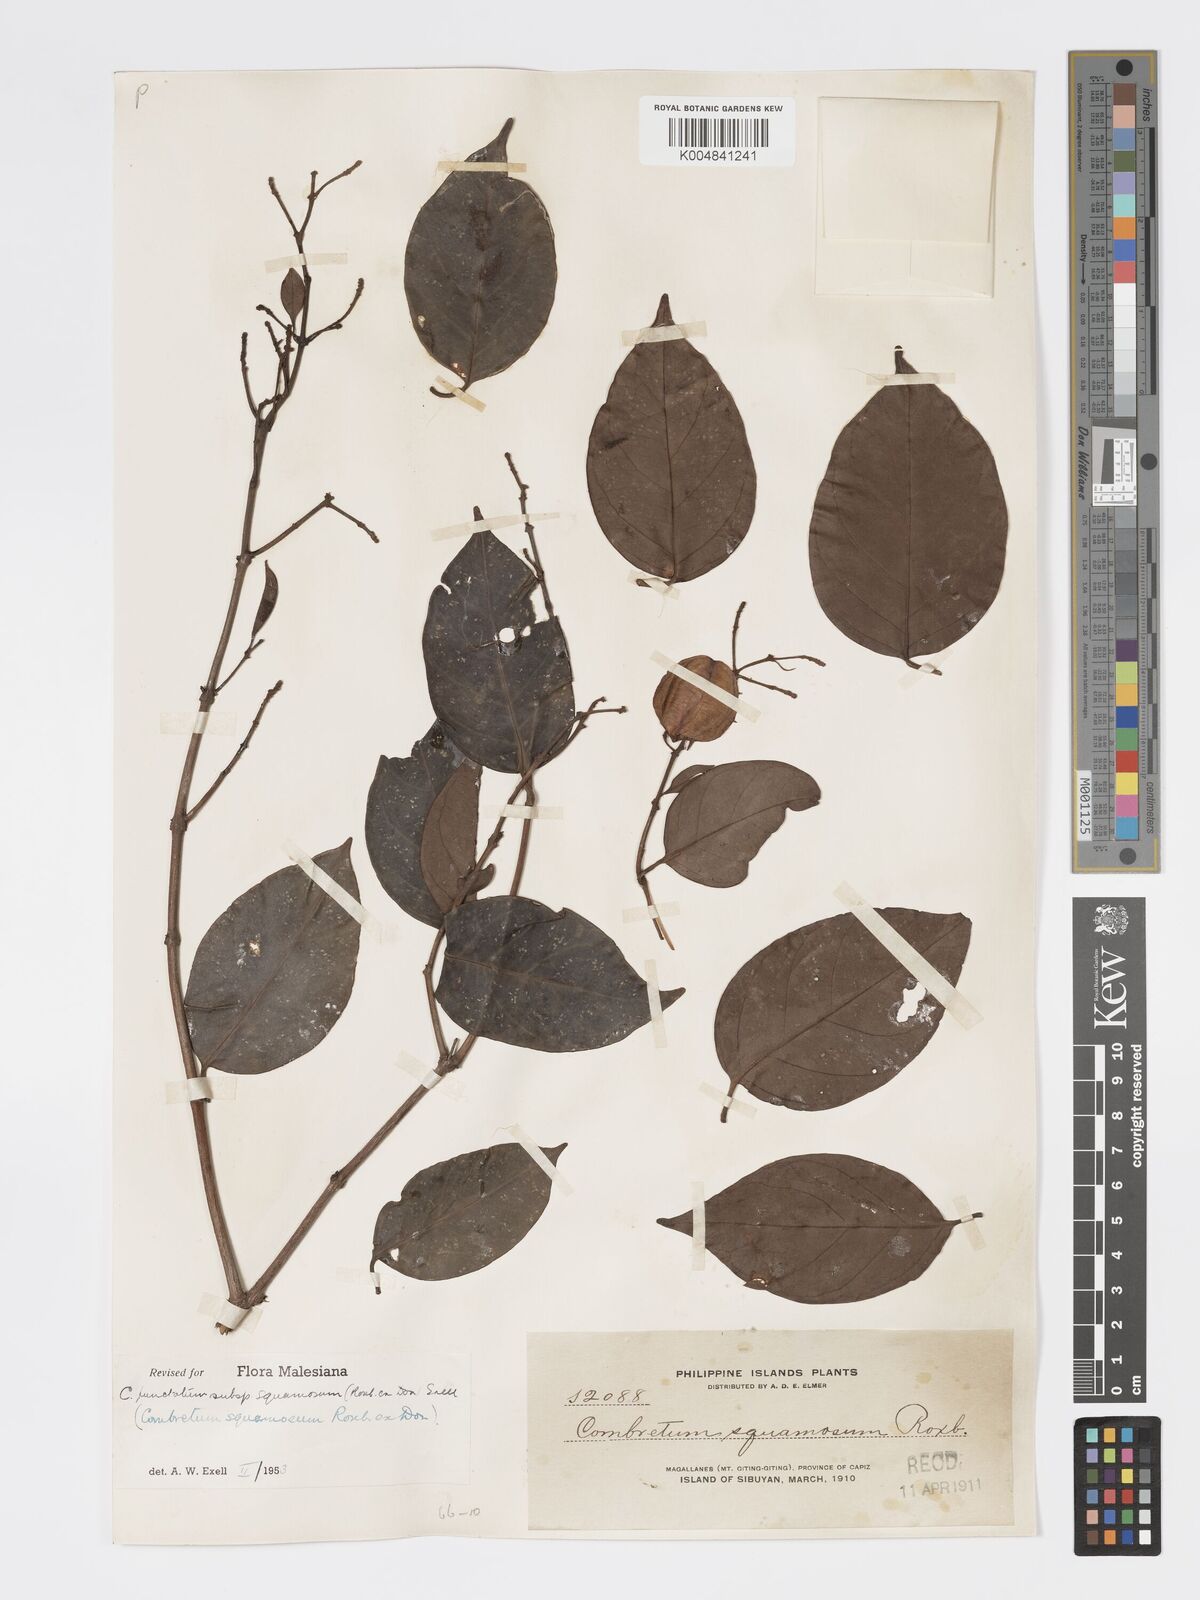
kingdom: Plantae
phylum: Tracheophyta
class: Magnoliopsida
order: Myrtales
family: Combretaceae
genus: Combretum
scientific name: Combretum
